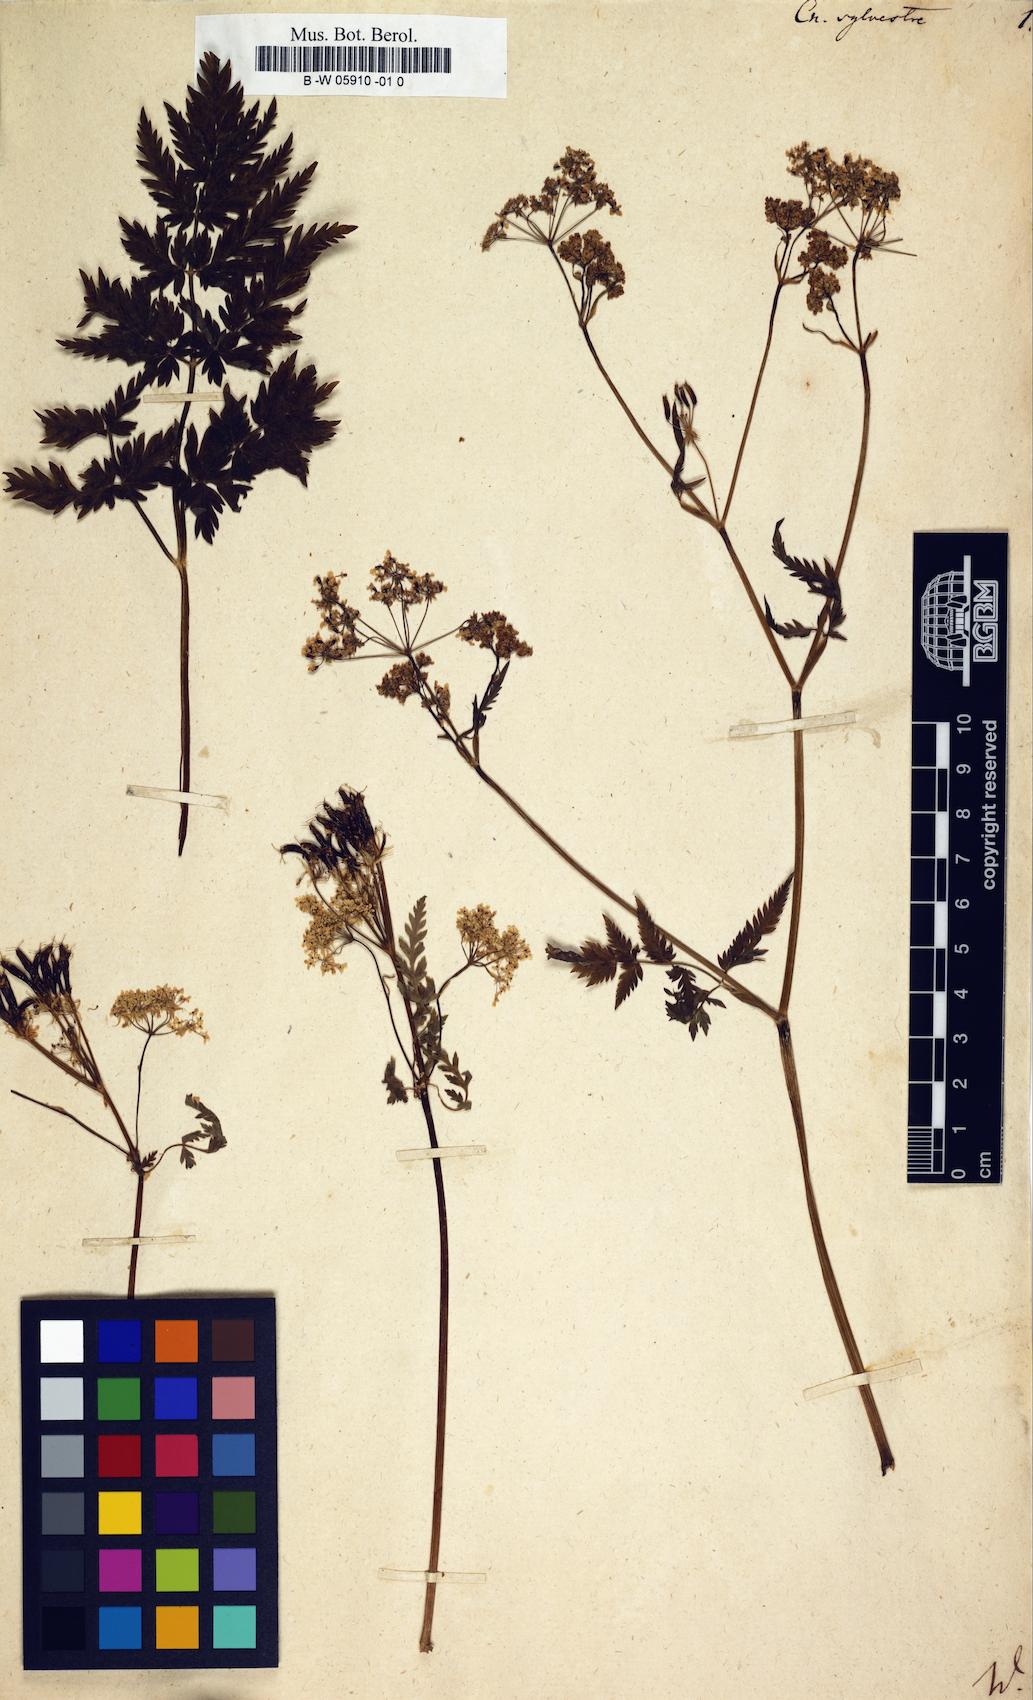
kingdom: Plantae
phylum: Tracheophyta
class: Magnoliopsida
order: Apiales
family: Apiaceae
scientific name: Apiaceae
